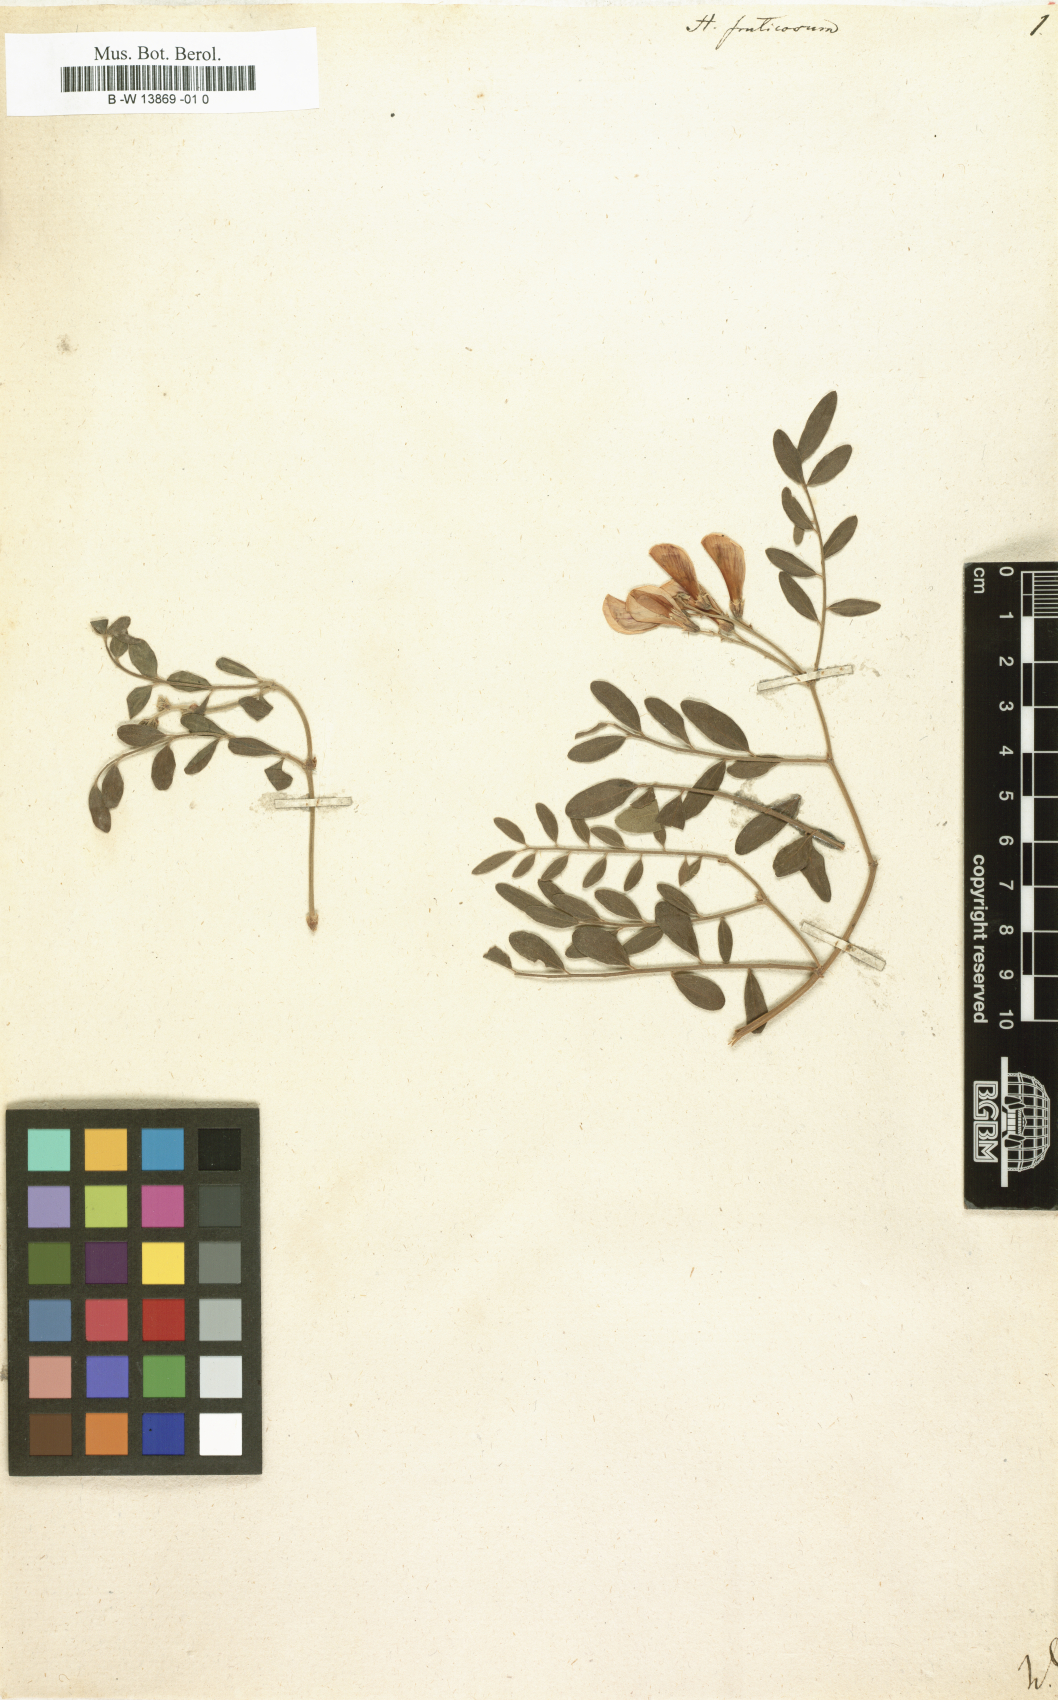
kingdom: Plantae
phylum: Tracheophyta
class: Magnoliopsida
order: Fabales
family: Fabaceae
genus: Corethrodendron
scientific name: Corethrodendron fruticosum
